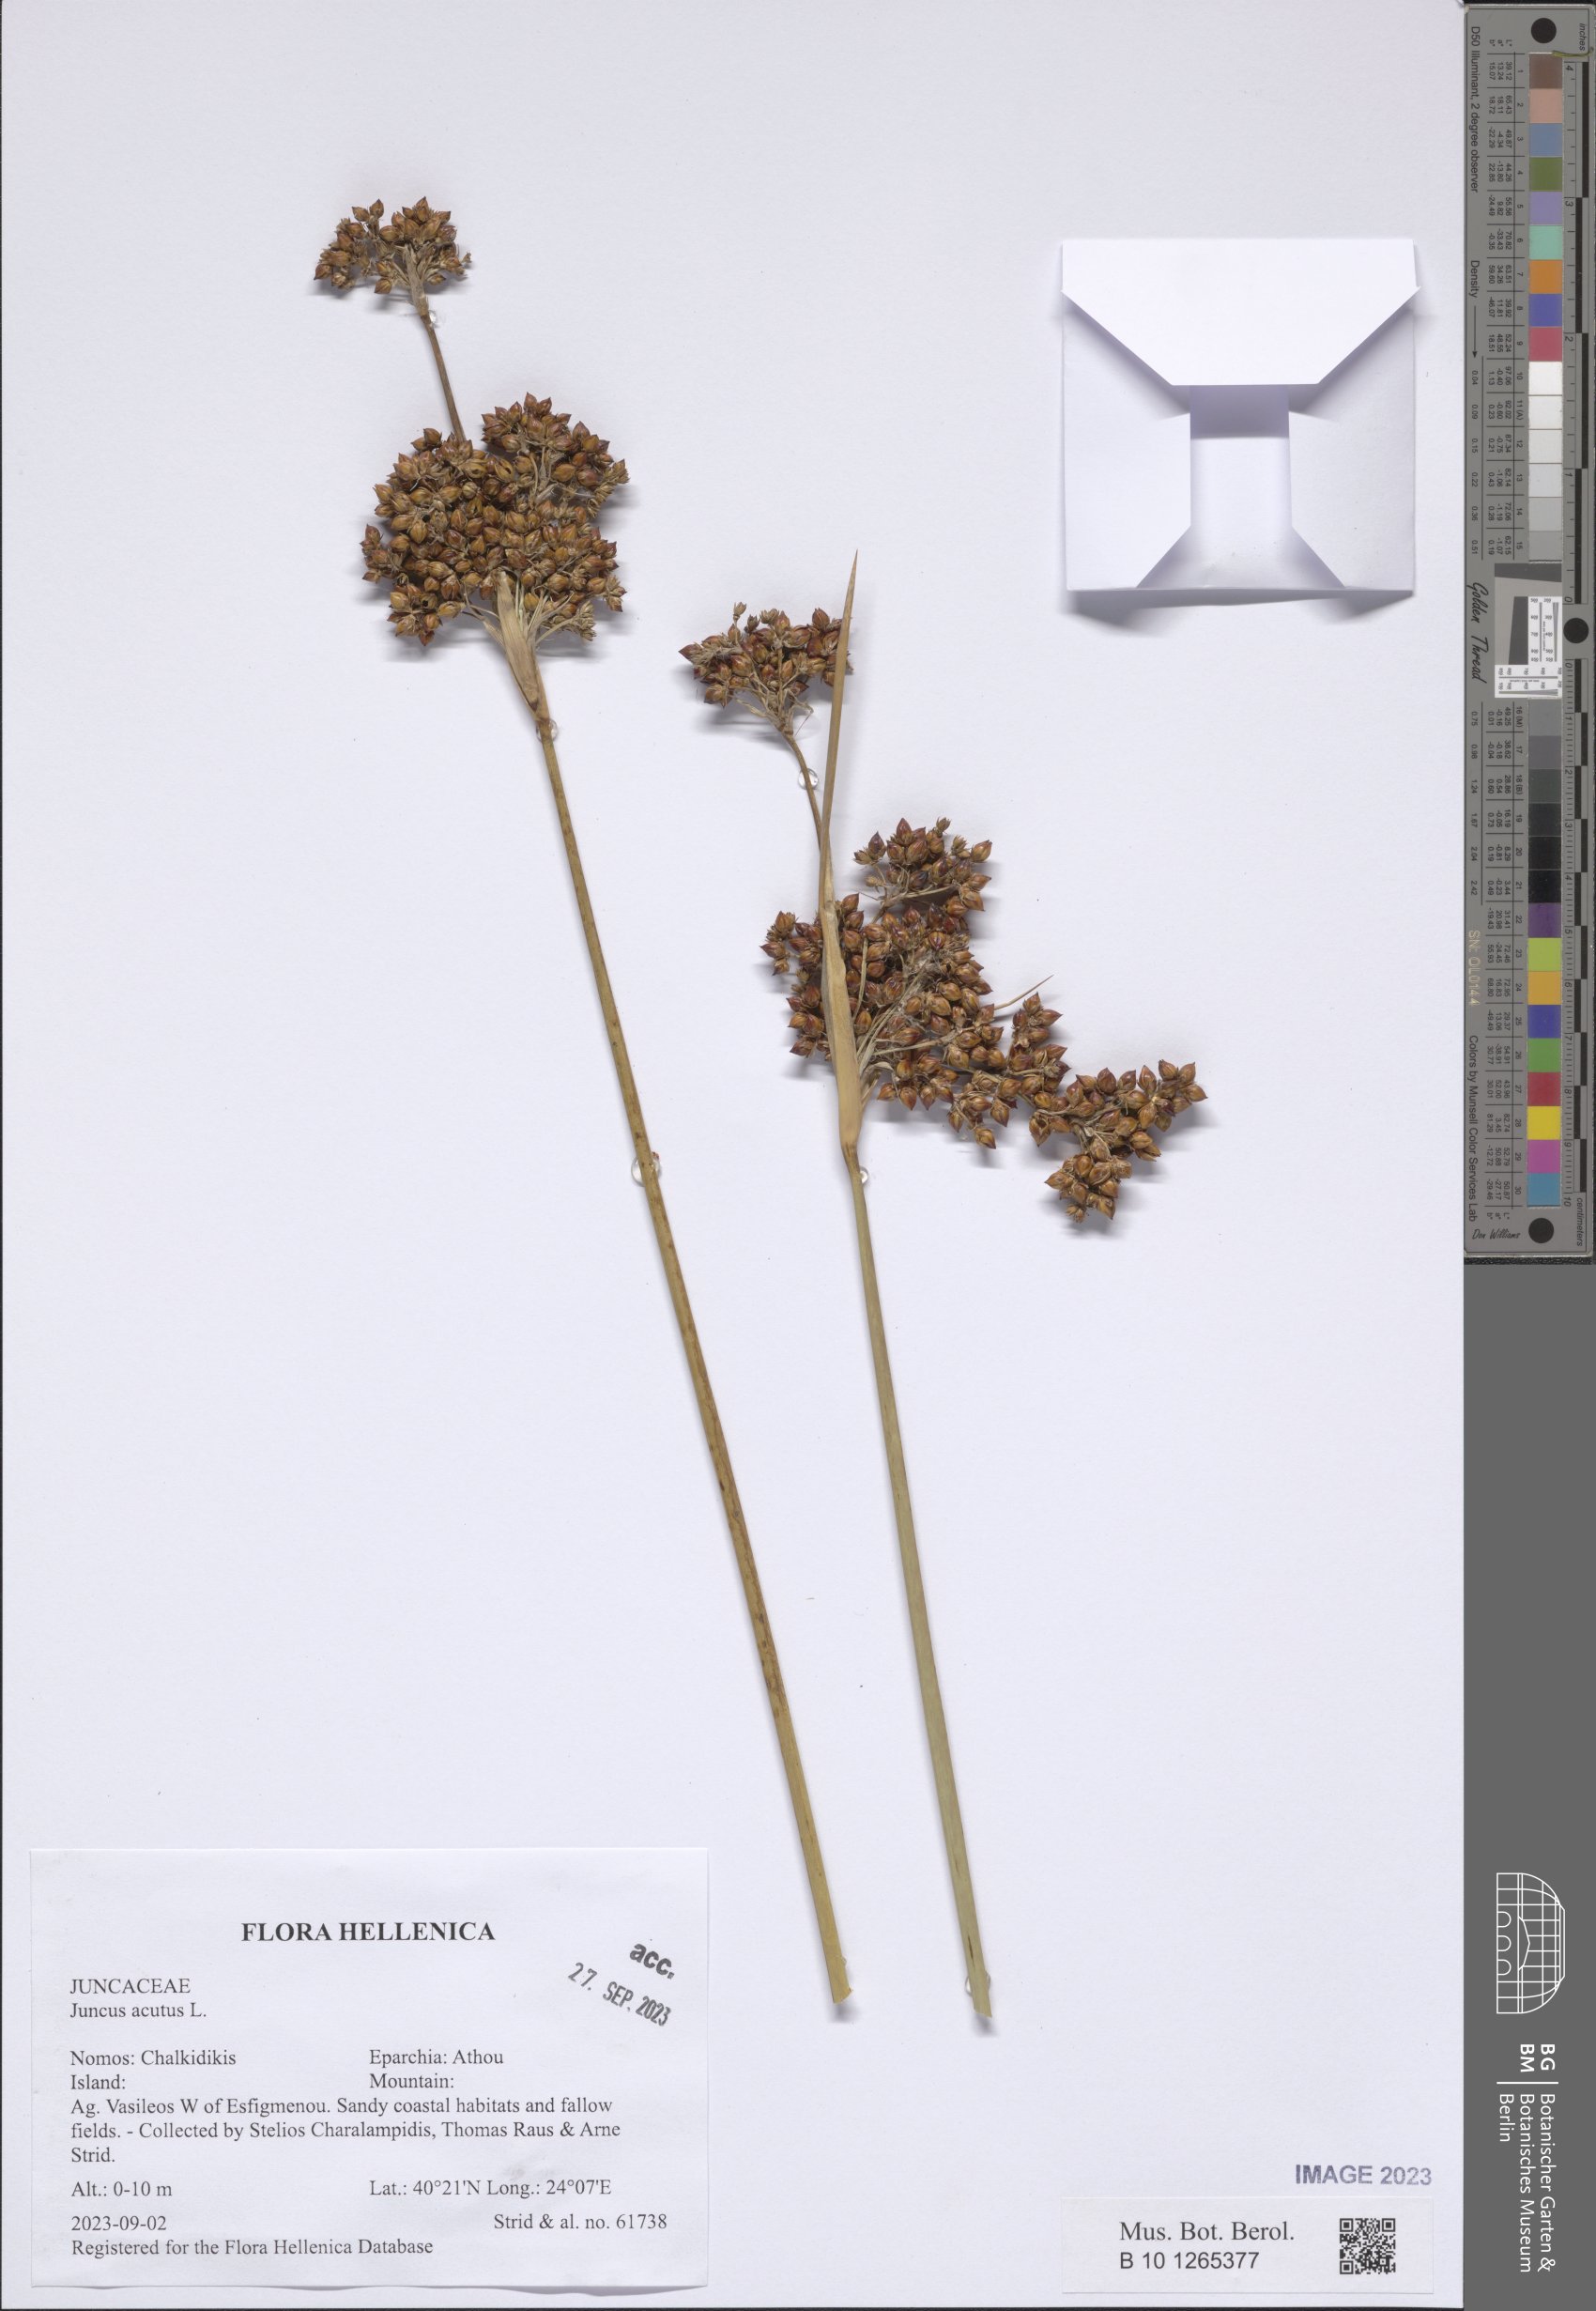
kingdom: Plantae
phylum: Tracheophyta
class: Liliopsida
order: Poales
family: Juncaceae
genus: Juncus
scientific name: Juncus acutus
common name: Sharp rush
